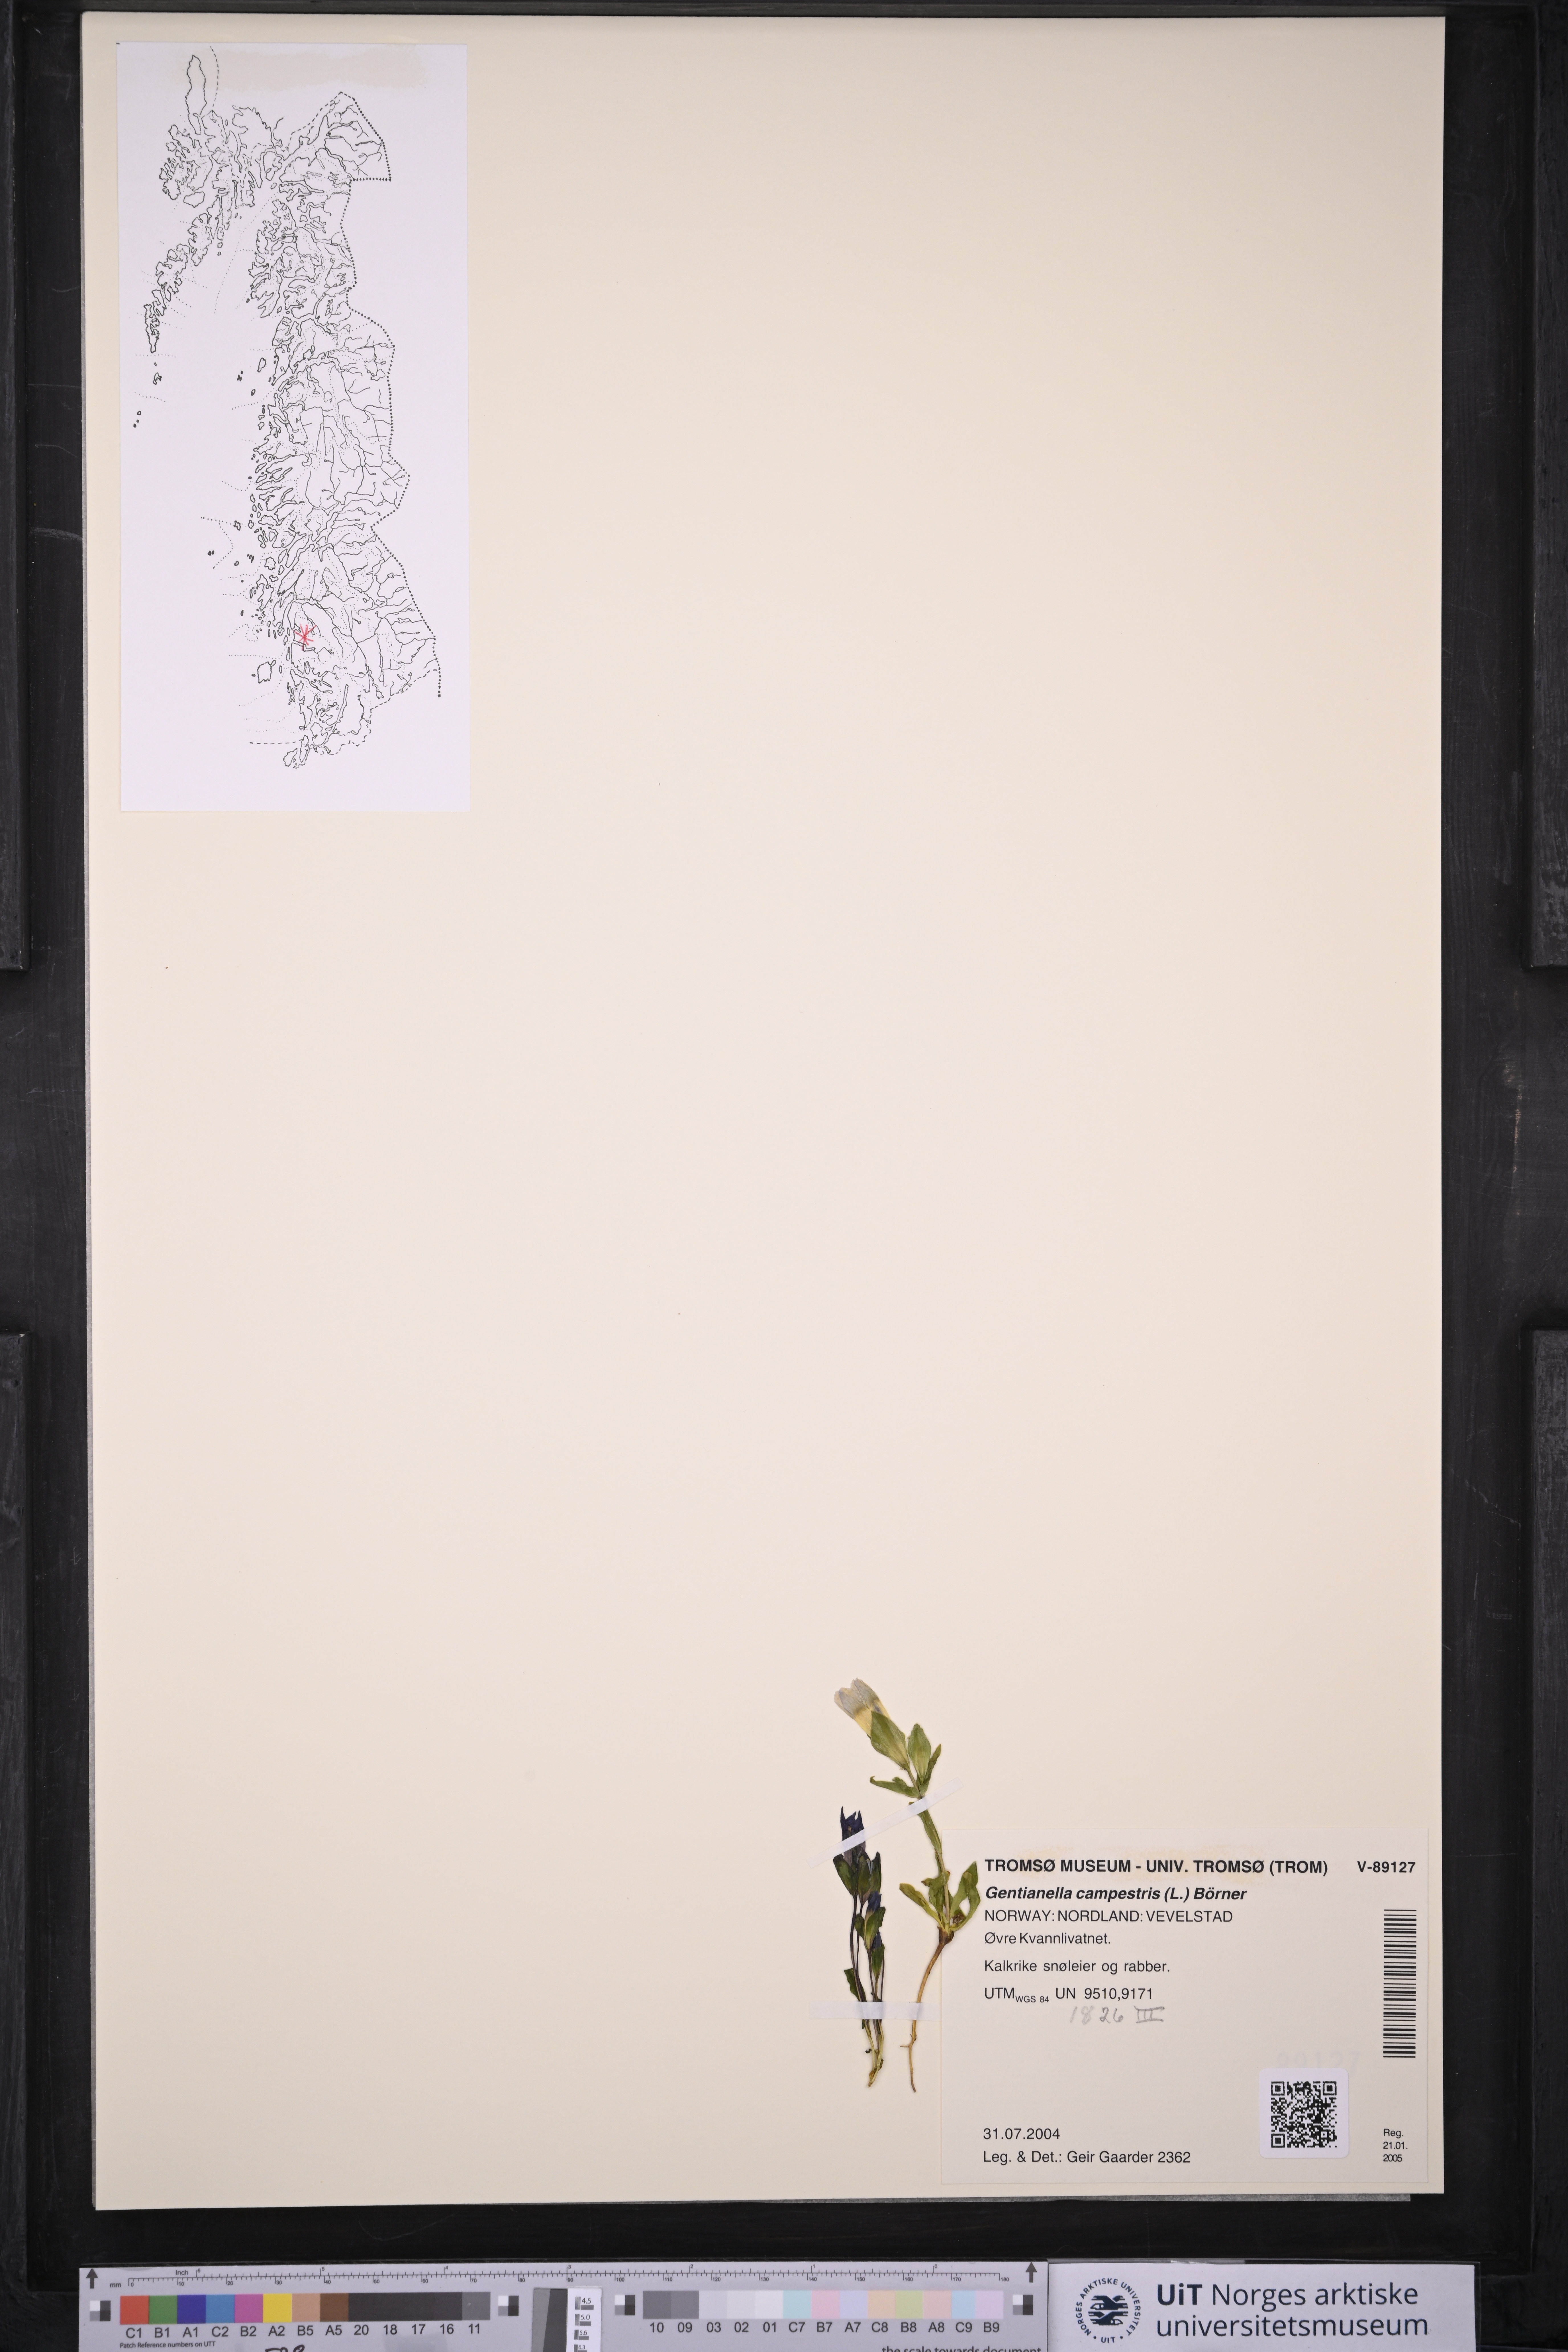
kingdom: Plantae
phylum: Tracheophyta
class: Magnoliopsida
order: Gentianales
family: Gentianaceae
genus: Gentianella
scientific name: Gentianella campestris
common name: Field gentian
